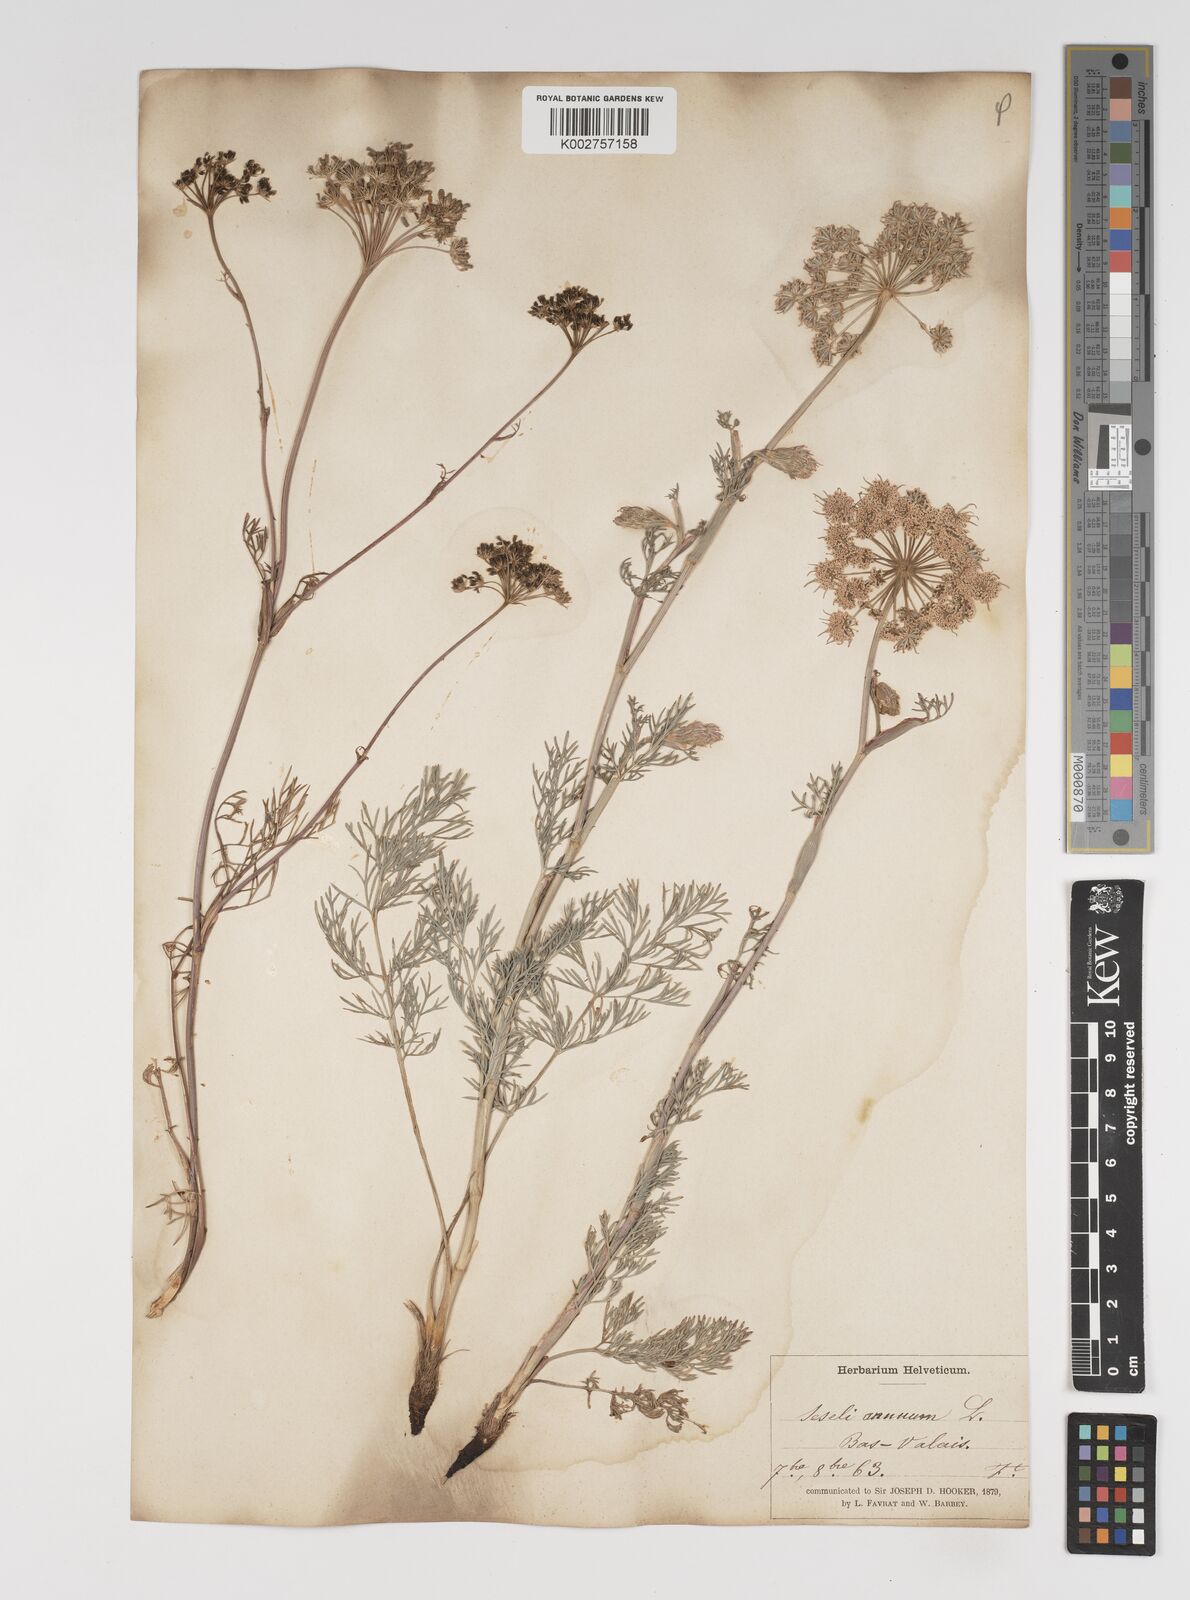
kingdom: Plantae
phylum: Tracheophyta
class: Magnoliopsida
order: Apiales
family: Apiaceae
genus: Seseli
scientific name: Seseli annuum
